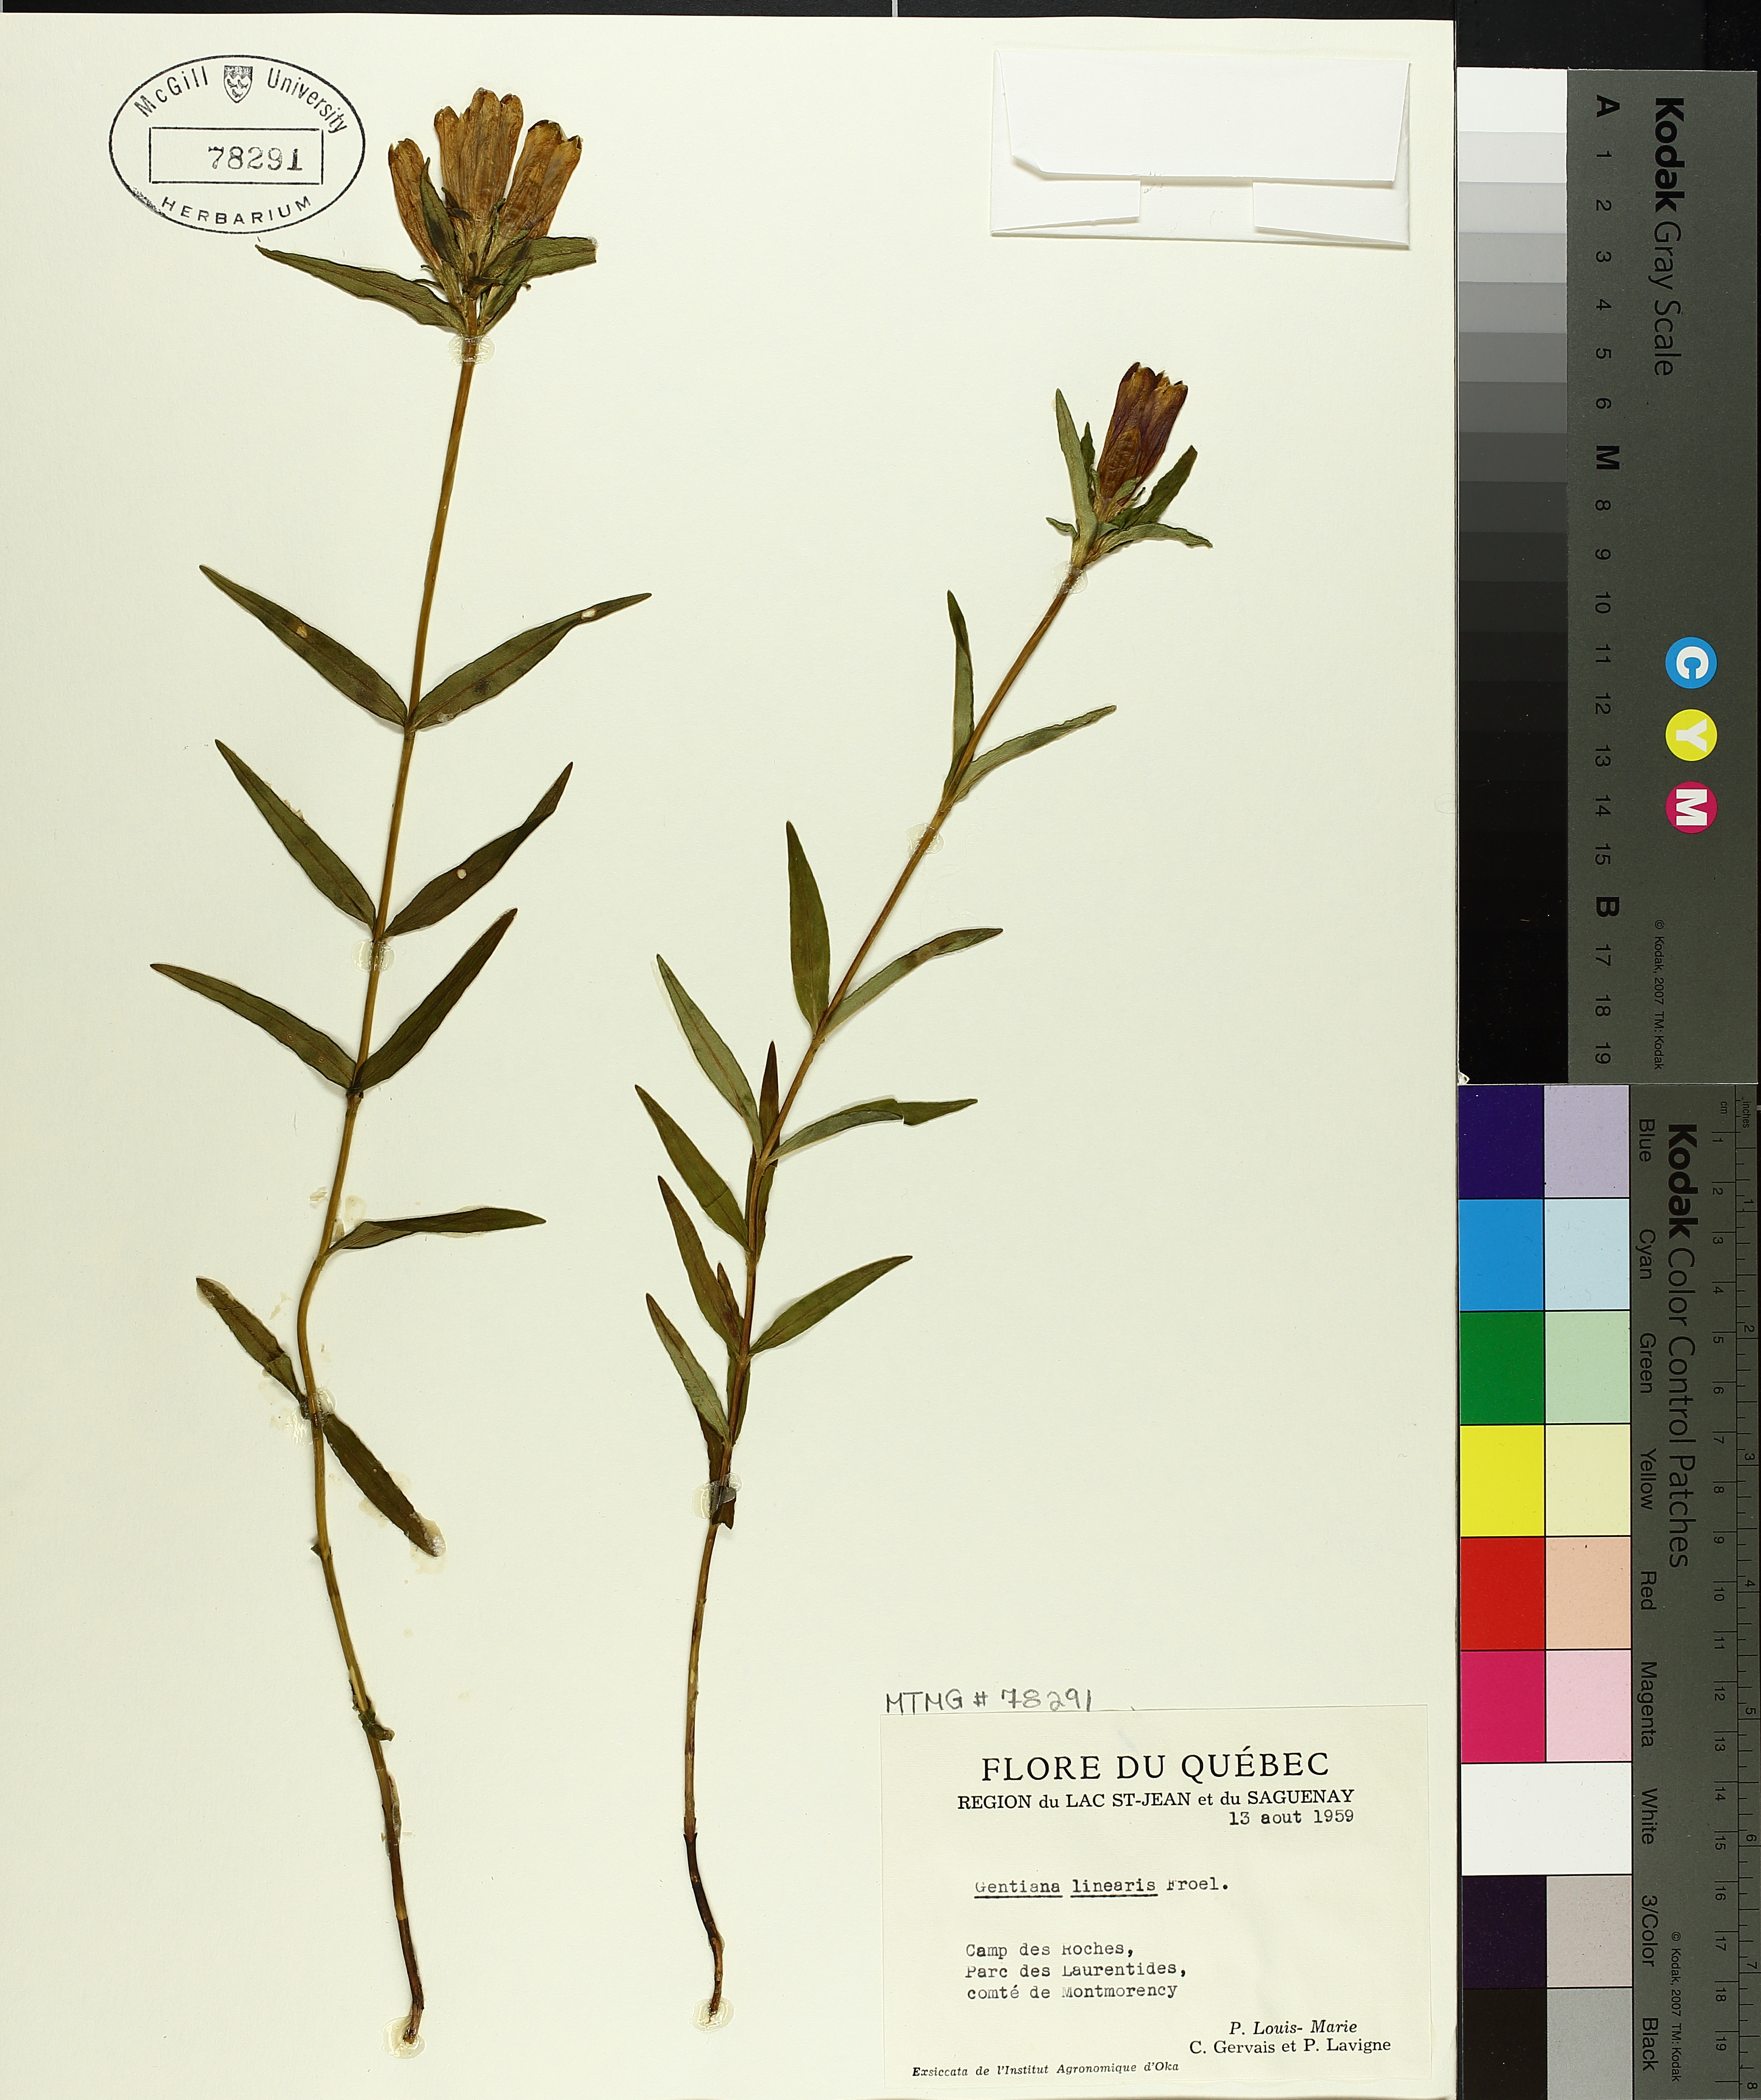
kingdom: Plantae
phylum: Tracheophyta
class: Magnoliopsida
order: Gentianales
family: Gentianaceae
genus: Gentiana
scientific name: Gentiana linearis
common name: Bastard gentian
